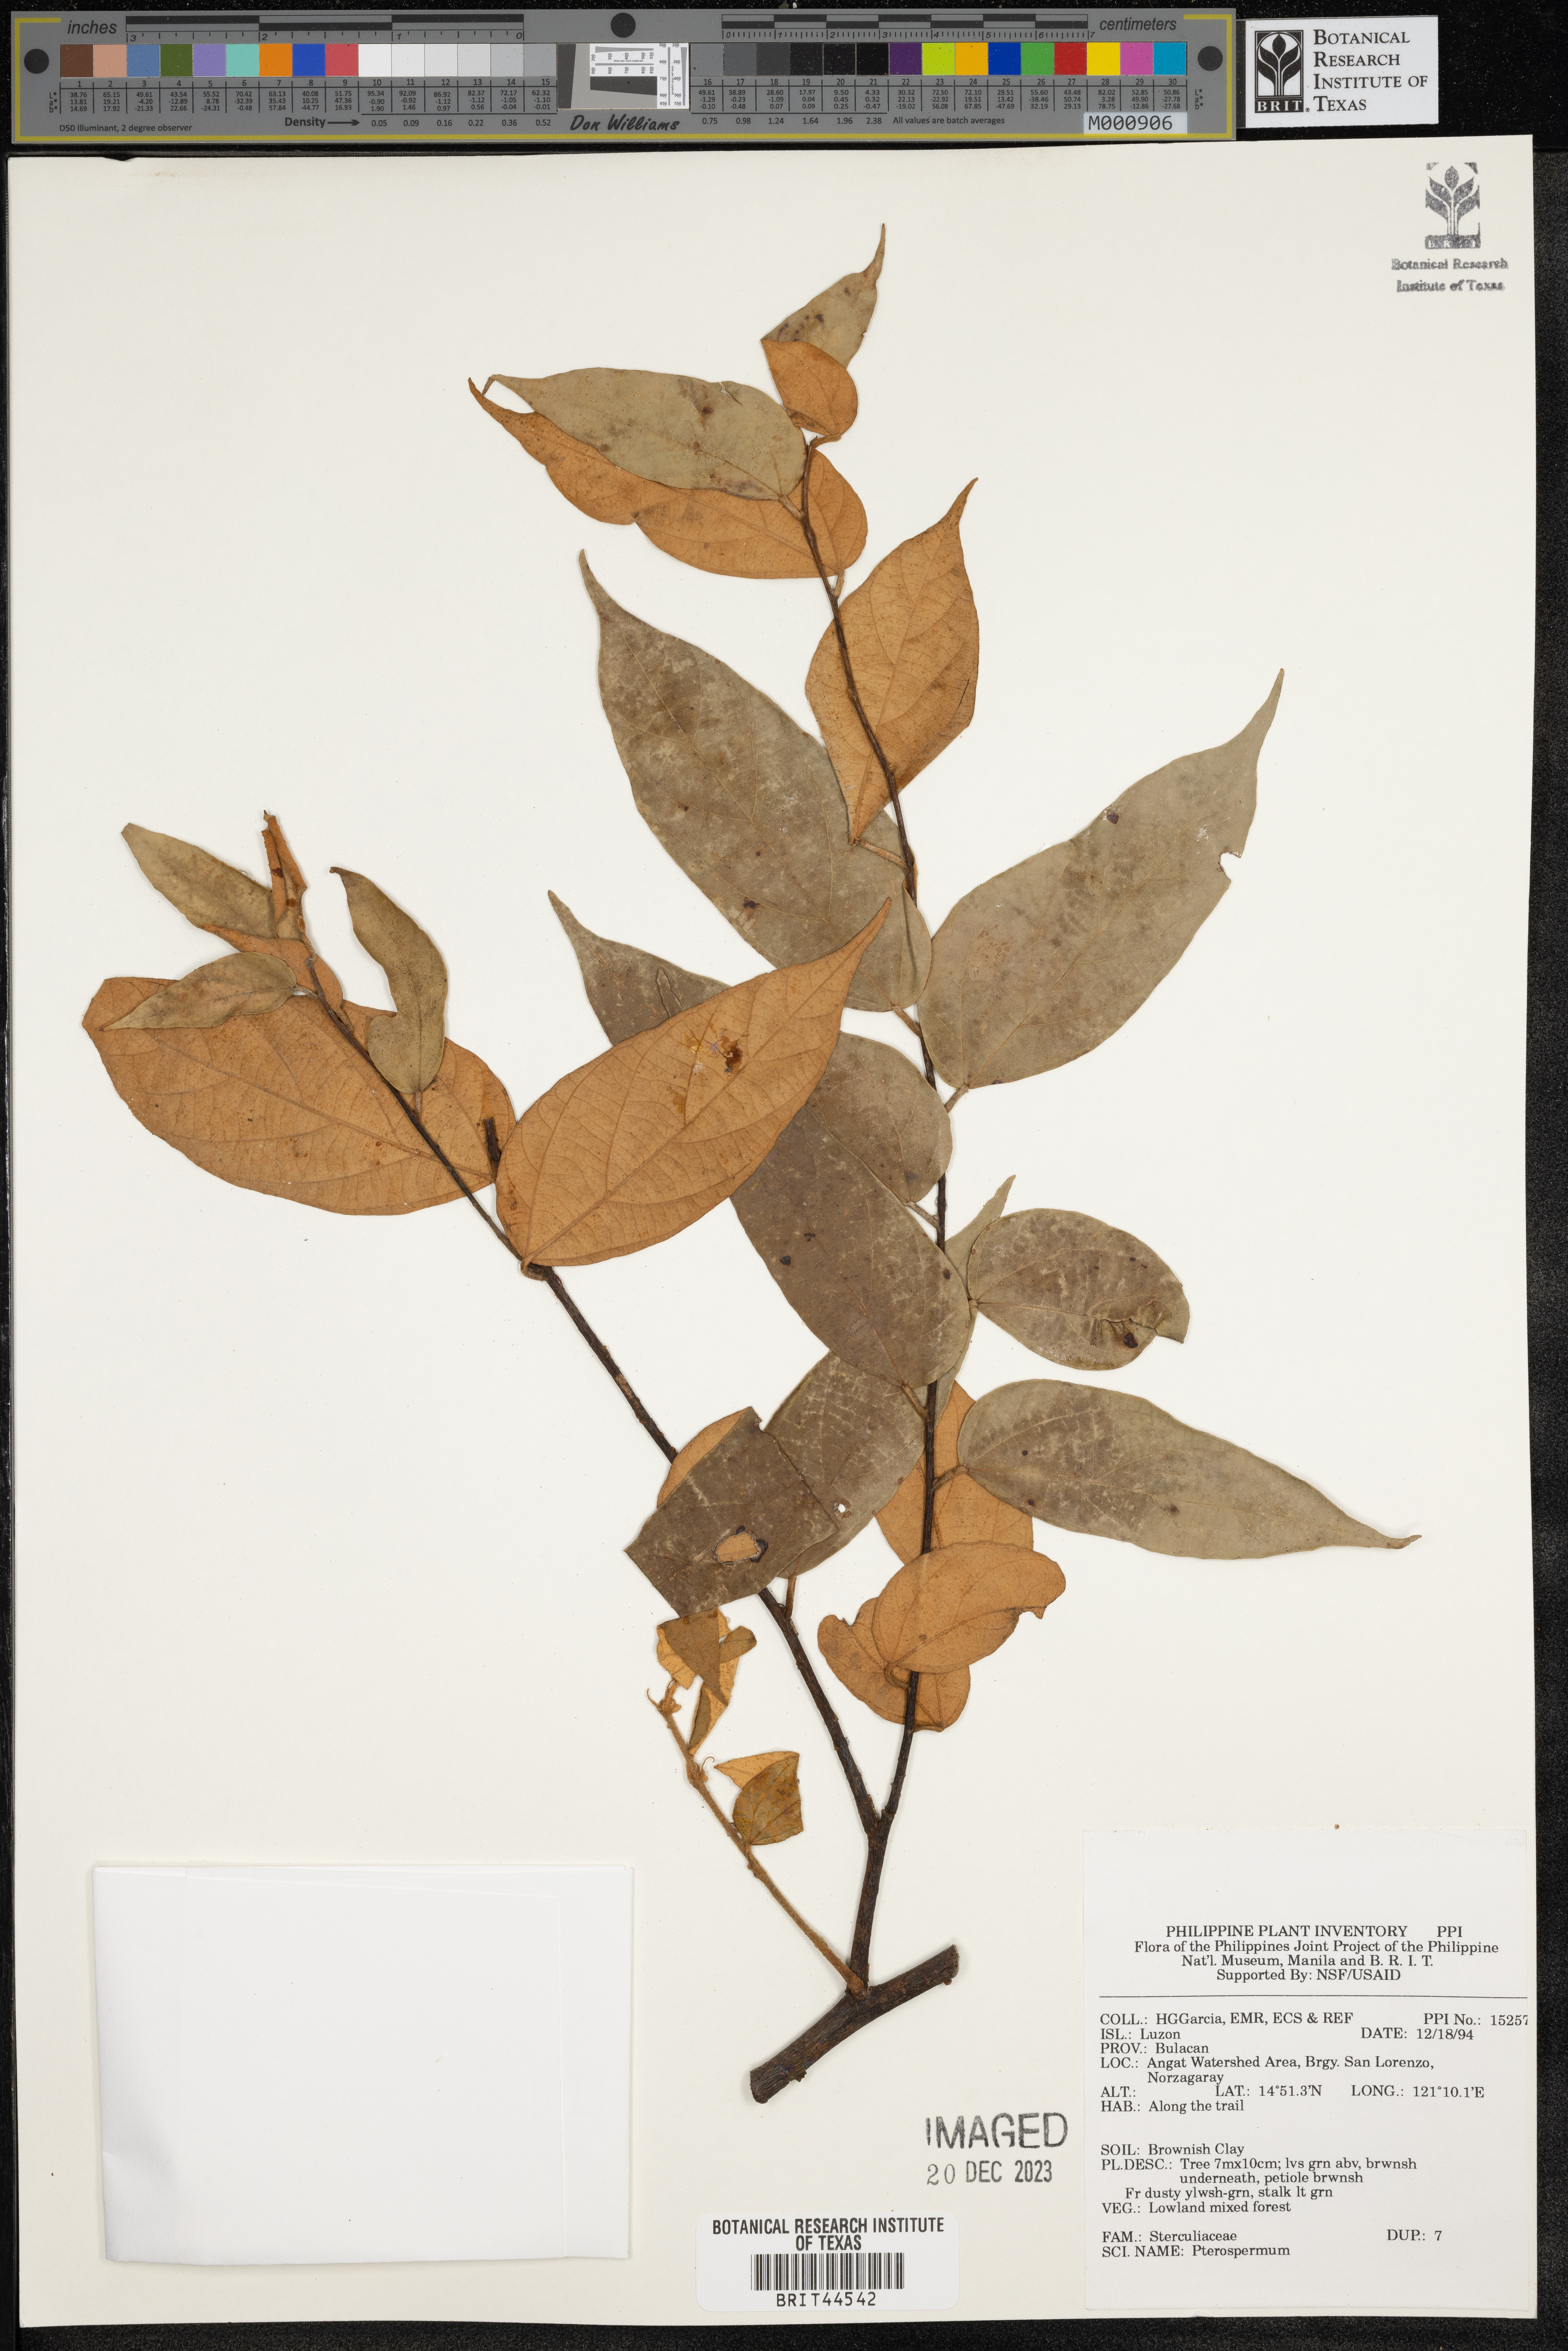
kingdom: Plantae
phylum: Tracheophyta
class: Magnoliopsida
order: Malvales
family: Malvaceae
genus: Pterospermum
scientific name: Pterospermum
